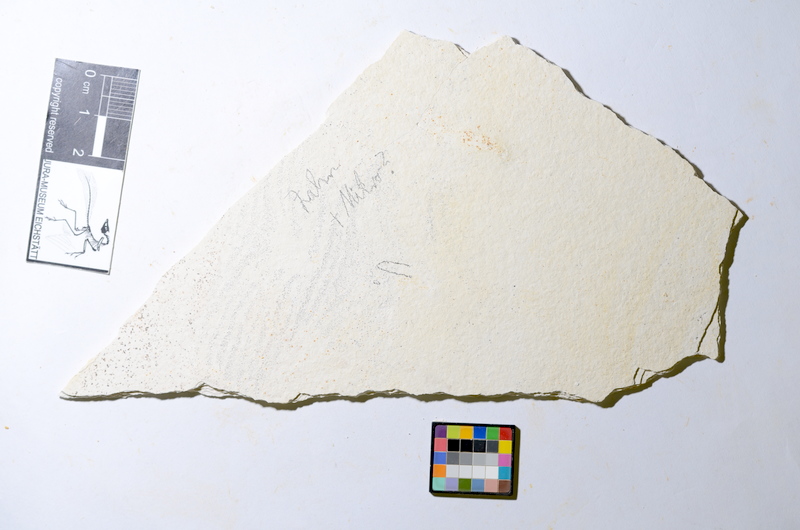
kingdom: Animalia
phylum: Chordata
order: Salmoniformes
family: Orthogonikleithridae
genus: Orthogonikleithrus
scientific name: Orthogonikleithrus hoelli
